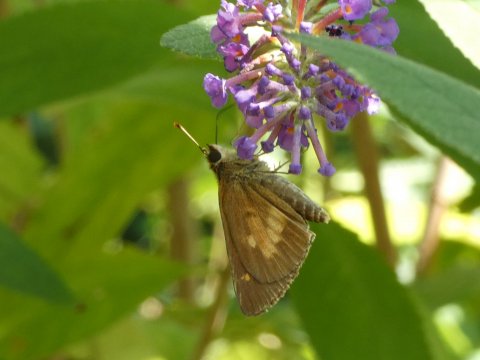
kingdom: Animalia
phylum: Arthropoda
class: Insecta
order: Lepidoptera
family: Hesperiidae
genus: Poanes
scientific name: Poanes viator
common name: Broad-winged Skipper
